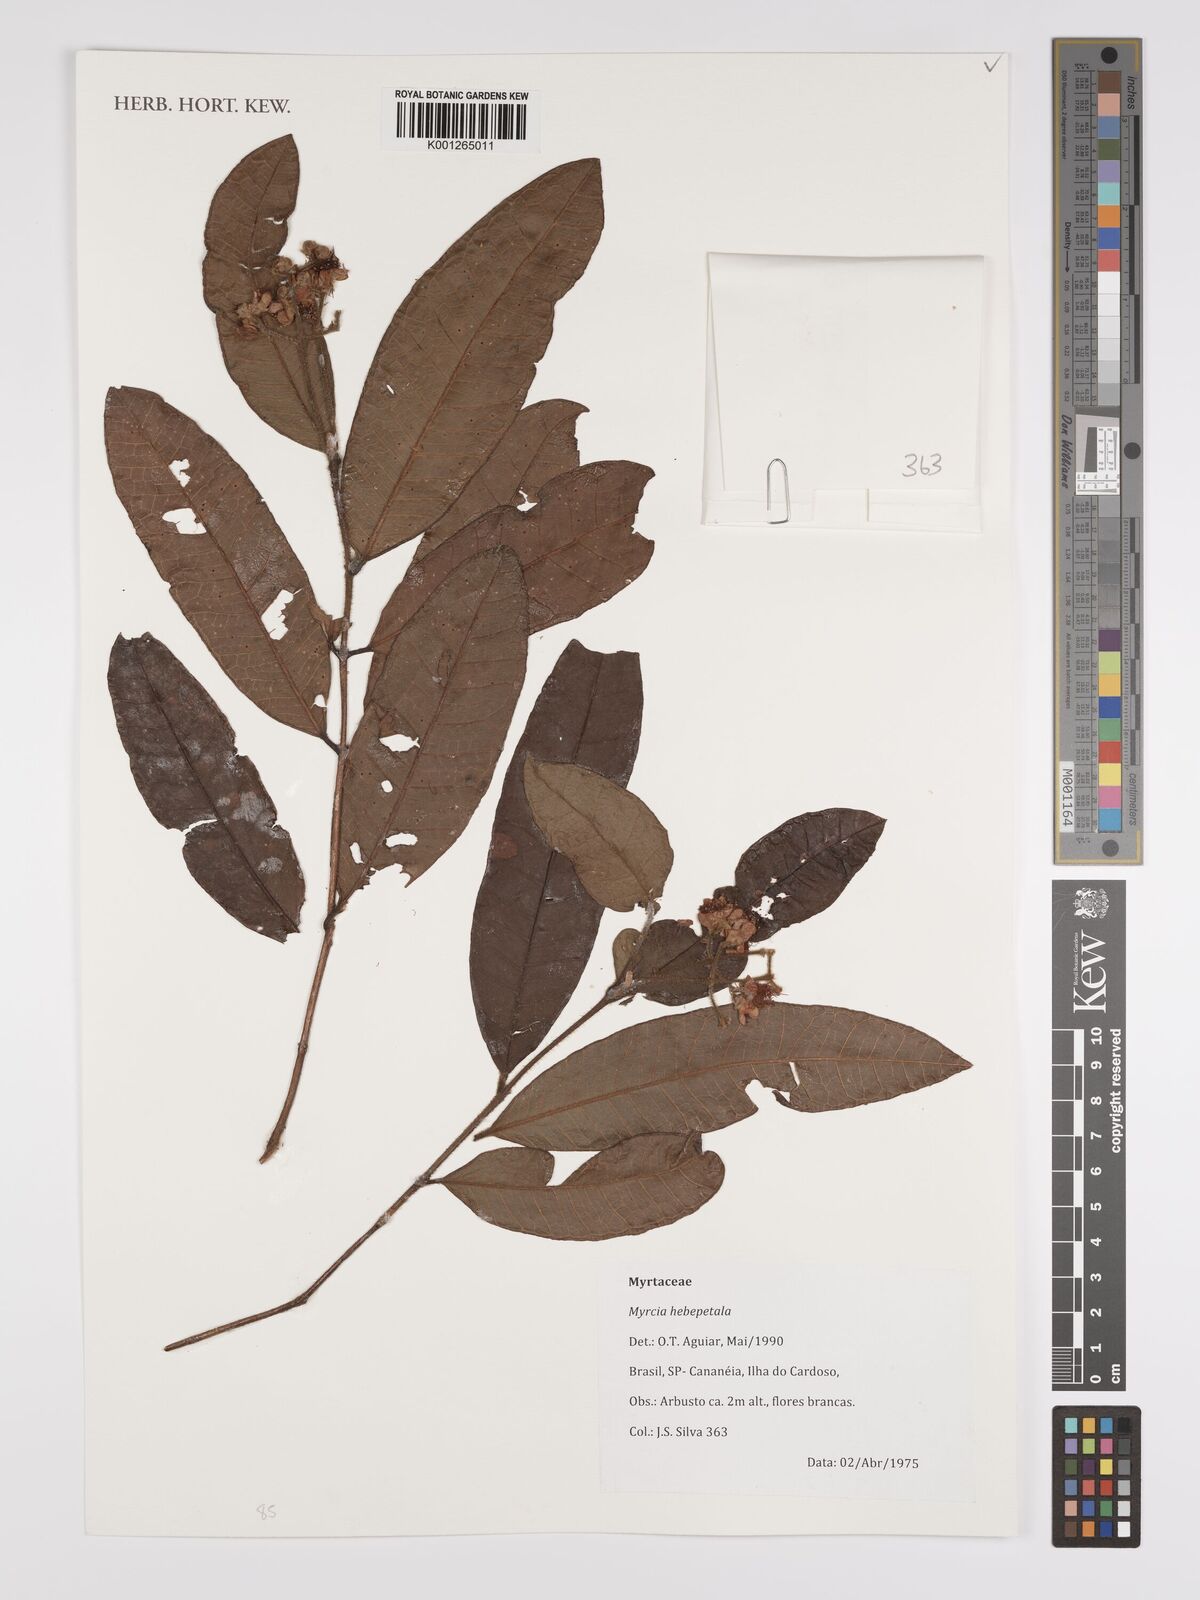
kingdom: Plantae
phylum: Tracheophyta
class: Magnoliopsida
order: Myrtales
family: Myrtaceae
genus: Myrcia
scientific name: Myrcia hebepetala
